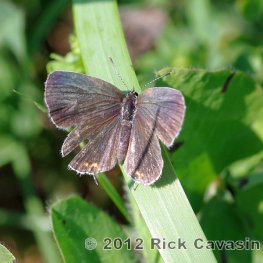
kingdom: Animalia
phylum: Arthropoda
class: Insecta
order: Lepidoptera
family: Lycaenidae
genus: Elkalyce
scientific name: Elkalyce comyntas
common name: Eastern Tailed-Blue
